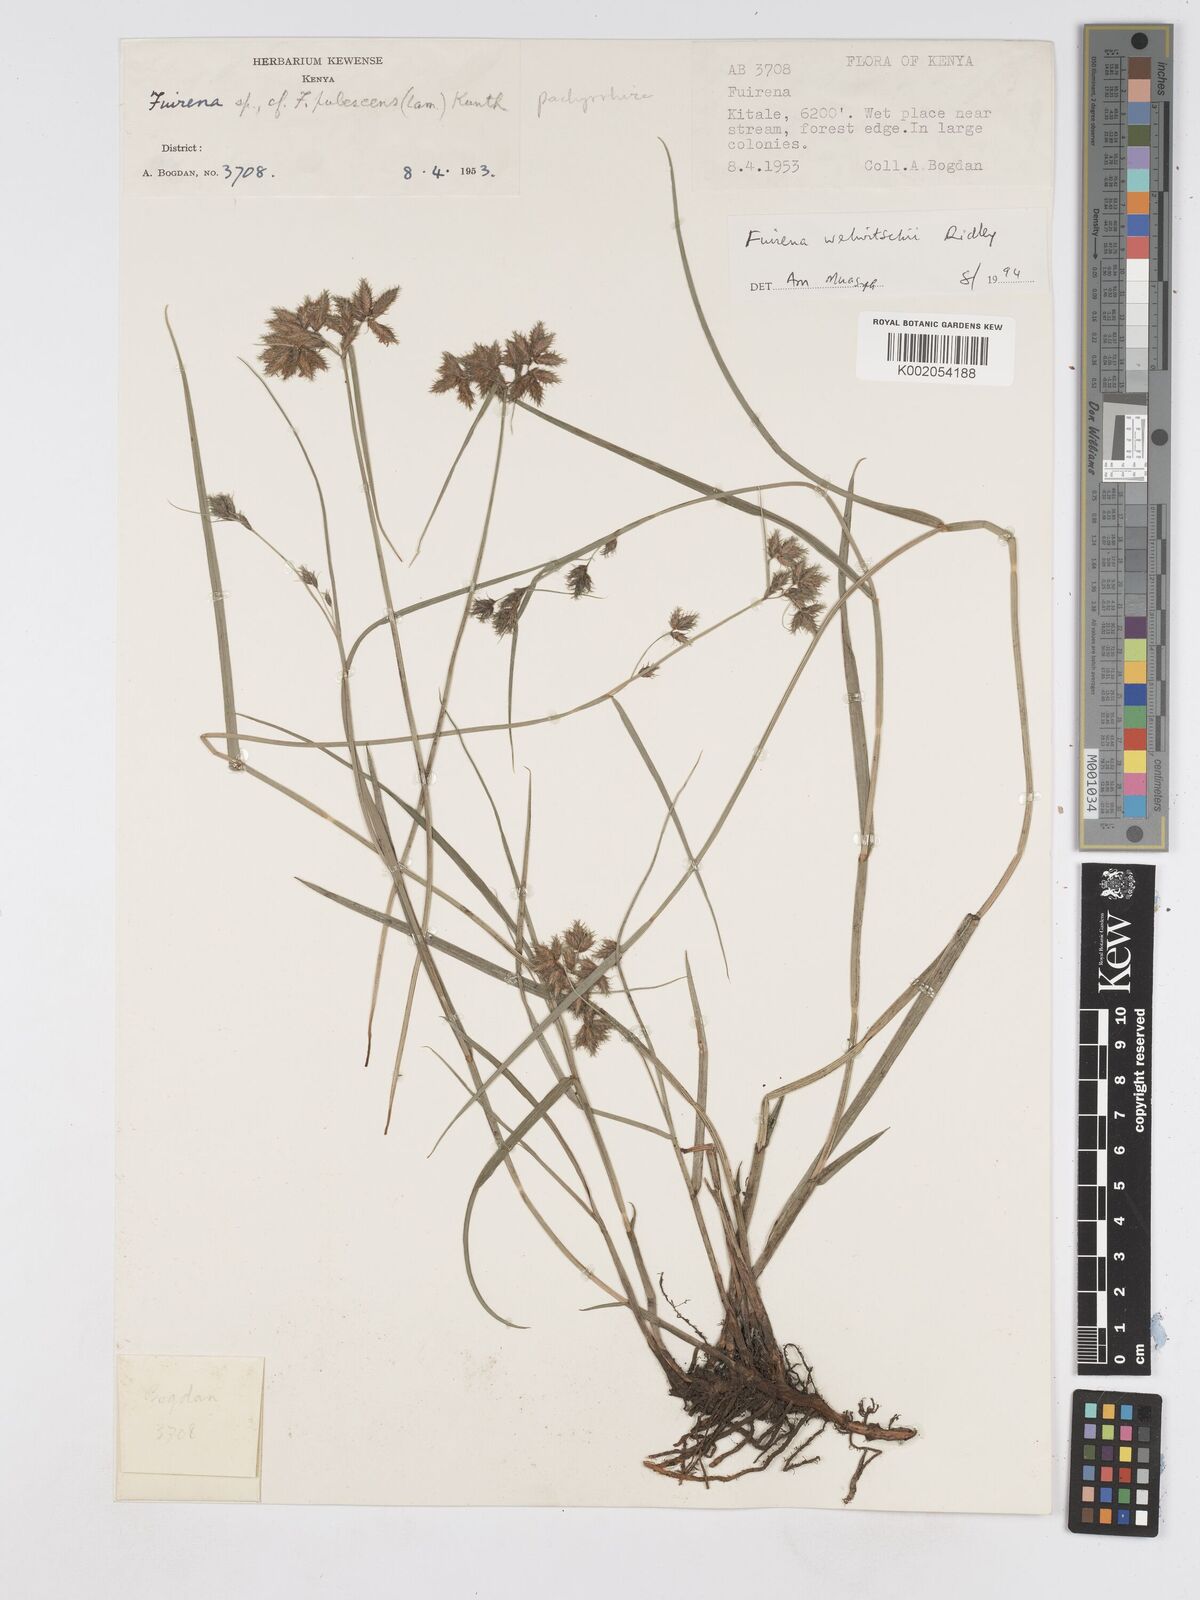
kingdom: Plantae
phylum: Tracheophyta
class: Liliopsida
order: Poales
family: Cyperaceae
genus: Fuirena
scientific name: Fuirena welwitschii
